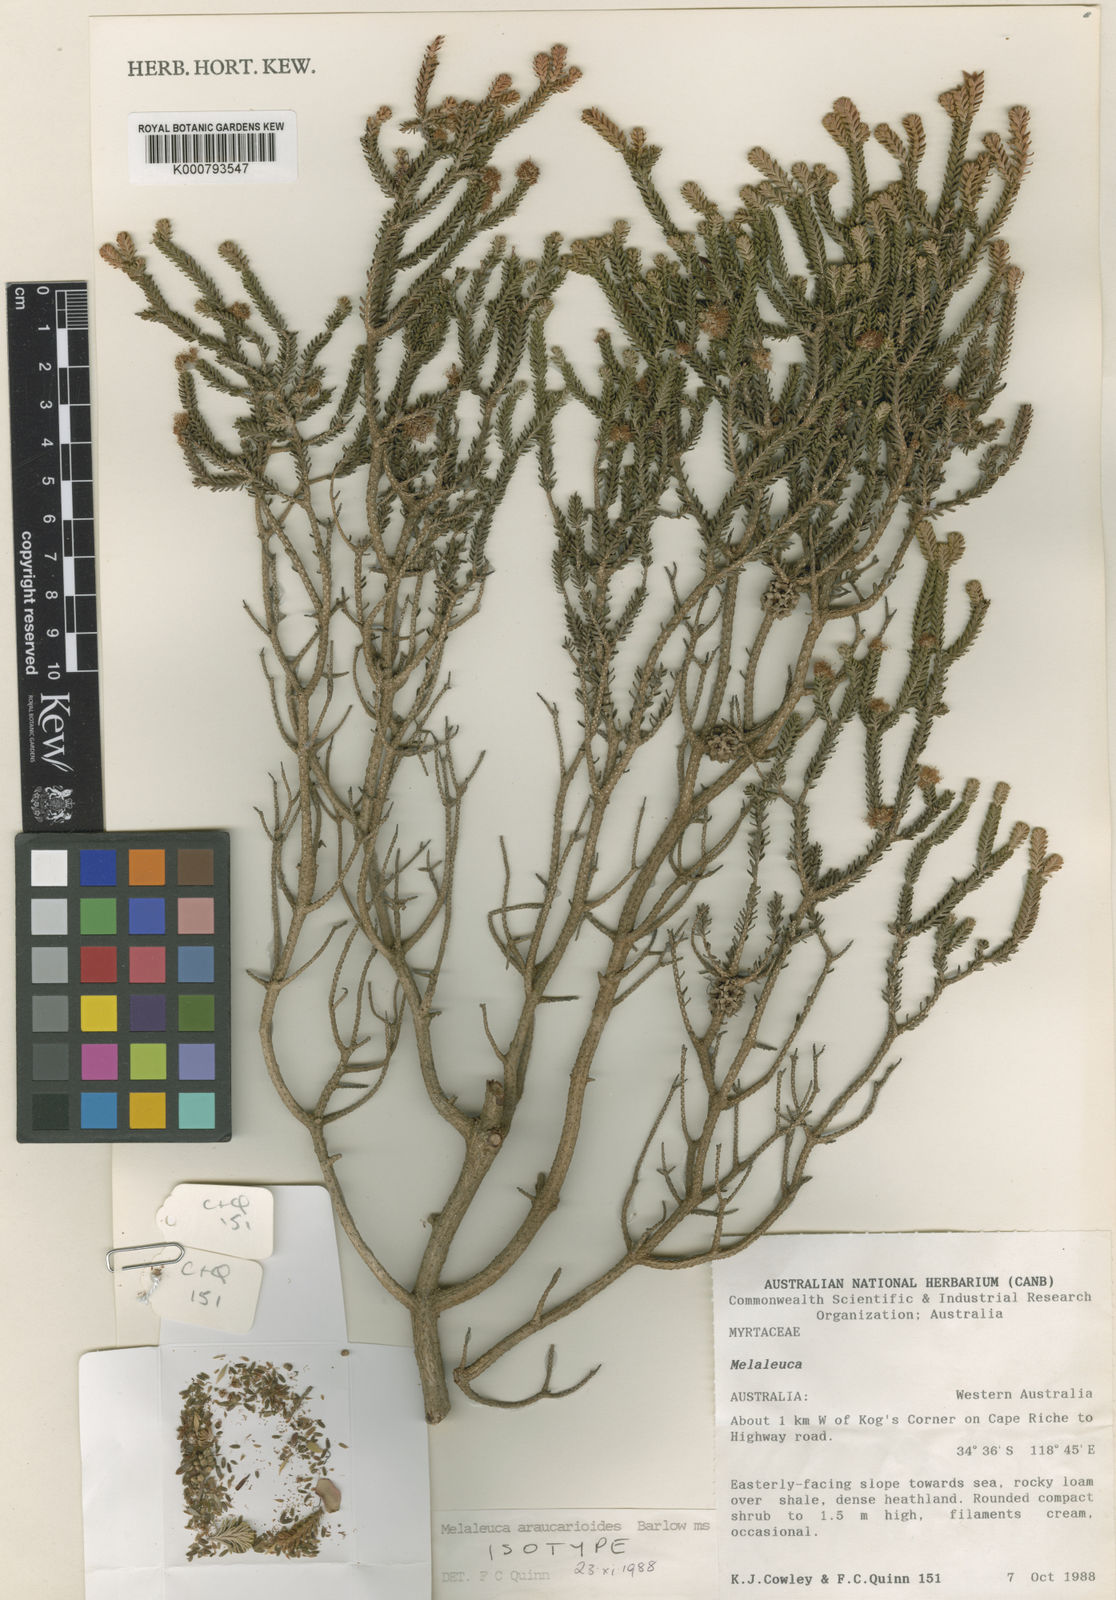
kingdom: Plantae
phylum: Tracheophyta
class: Magnoliopsida
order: Myrtales
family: Myrtaceae
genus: Melaleuca
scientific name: Melaleuca araucarioides
